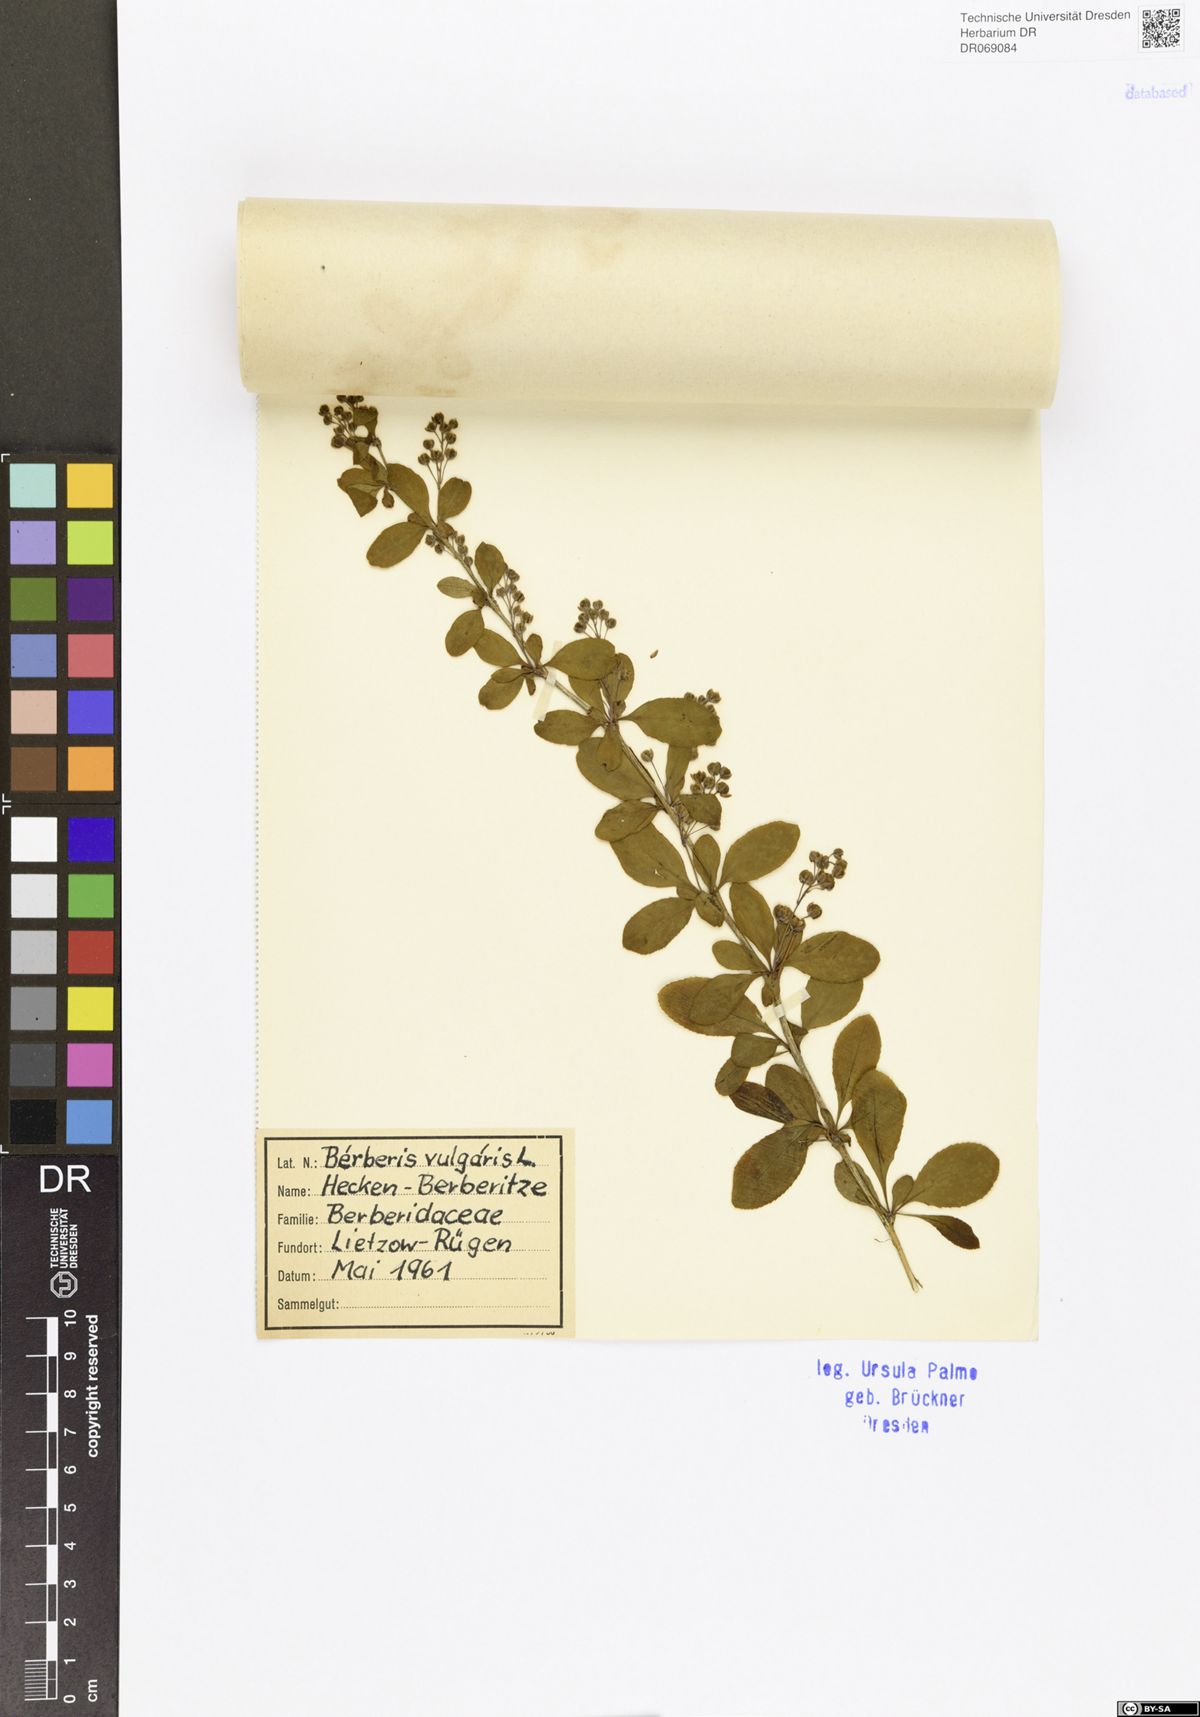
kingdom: Plantae
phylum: Tracheophyta
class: Magnoliopsida
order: Ranunculales
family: Berberidaceae
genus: Berberis
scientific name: Berberis vulgaris
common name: Barberry
